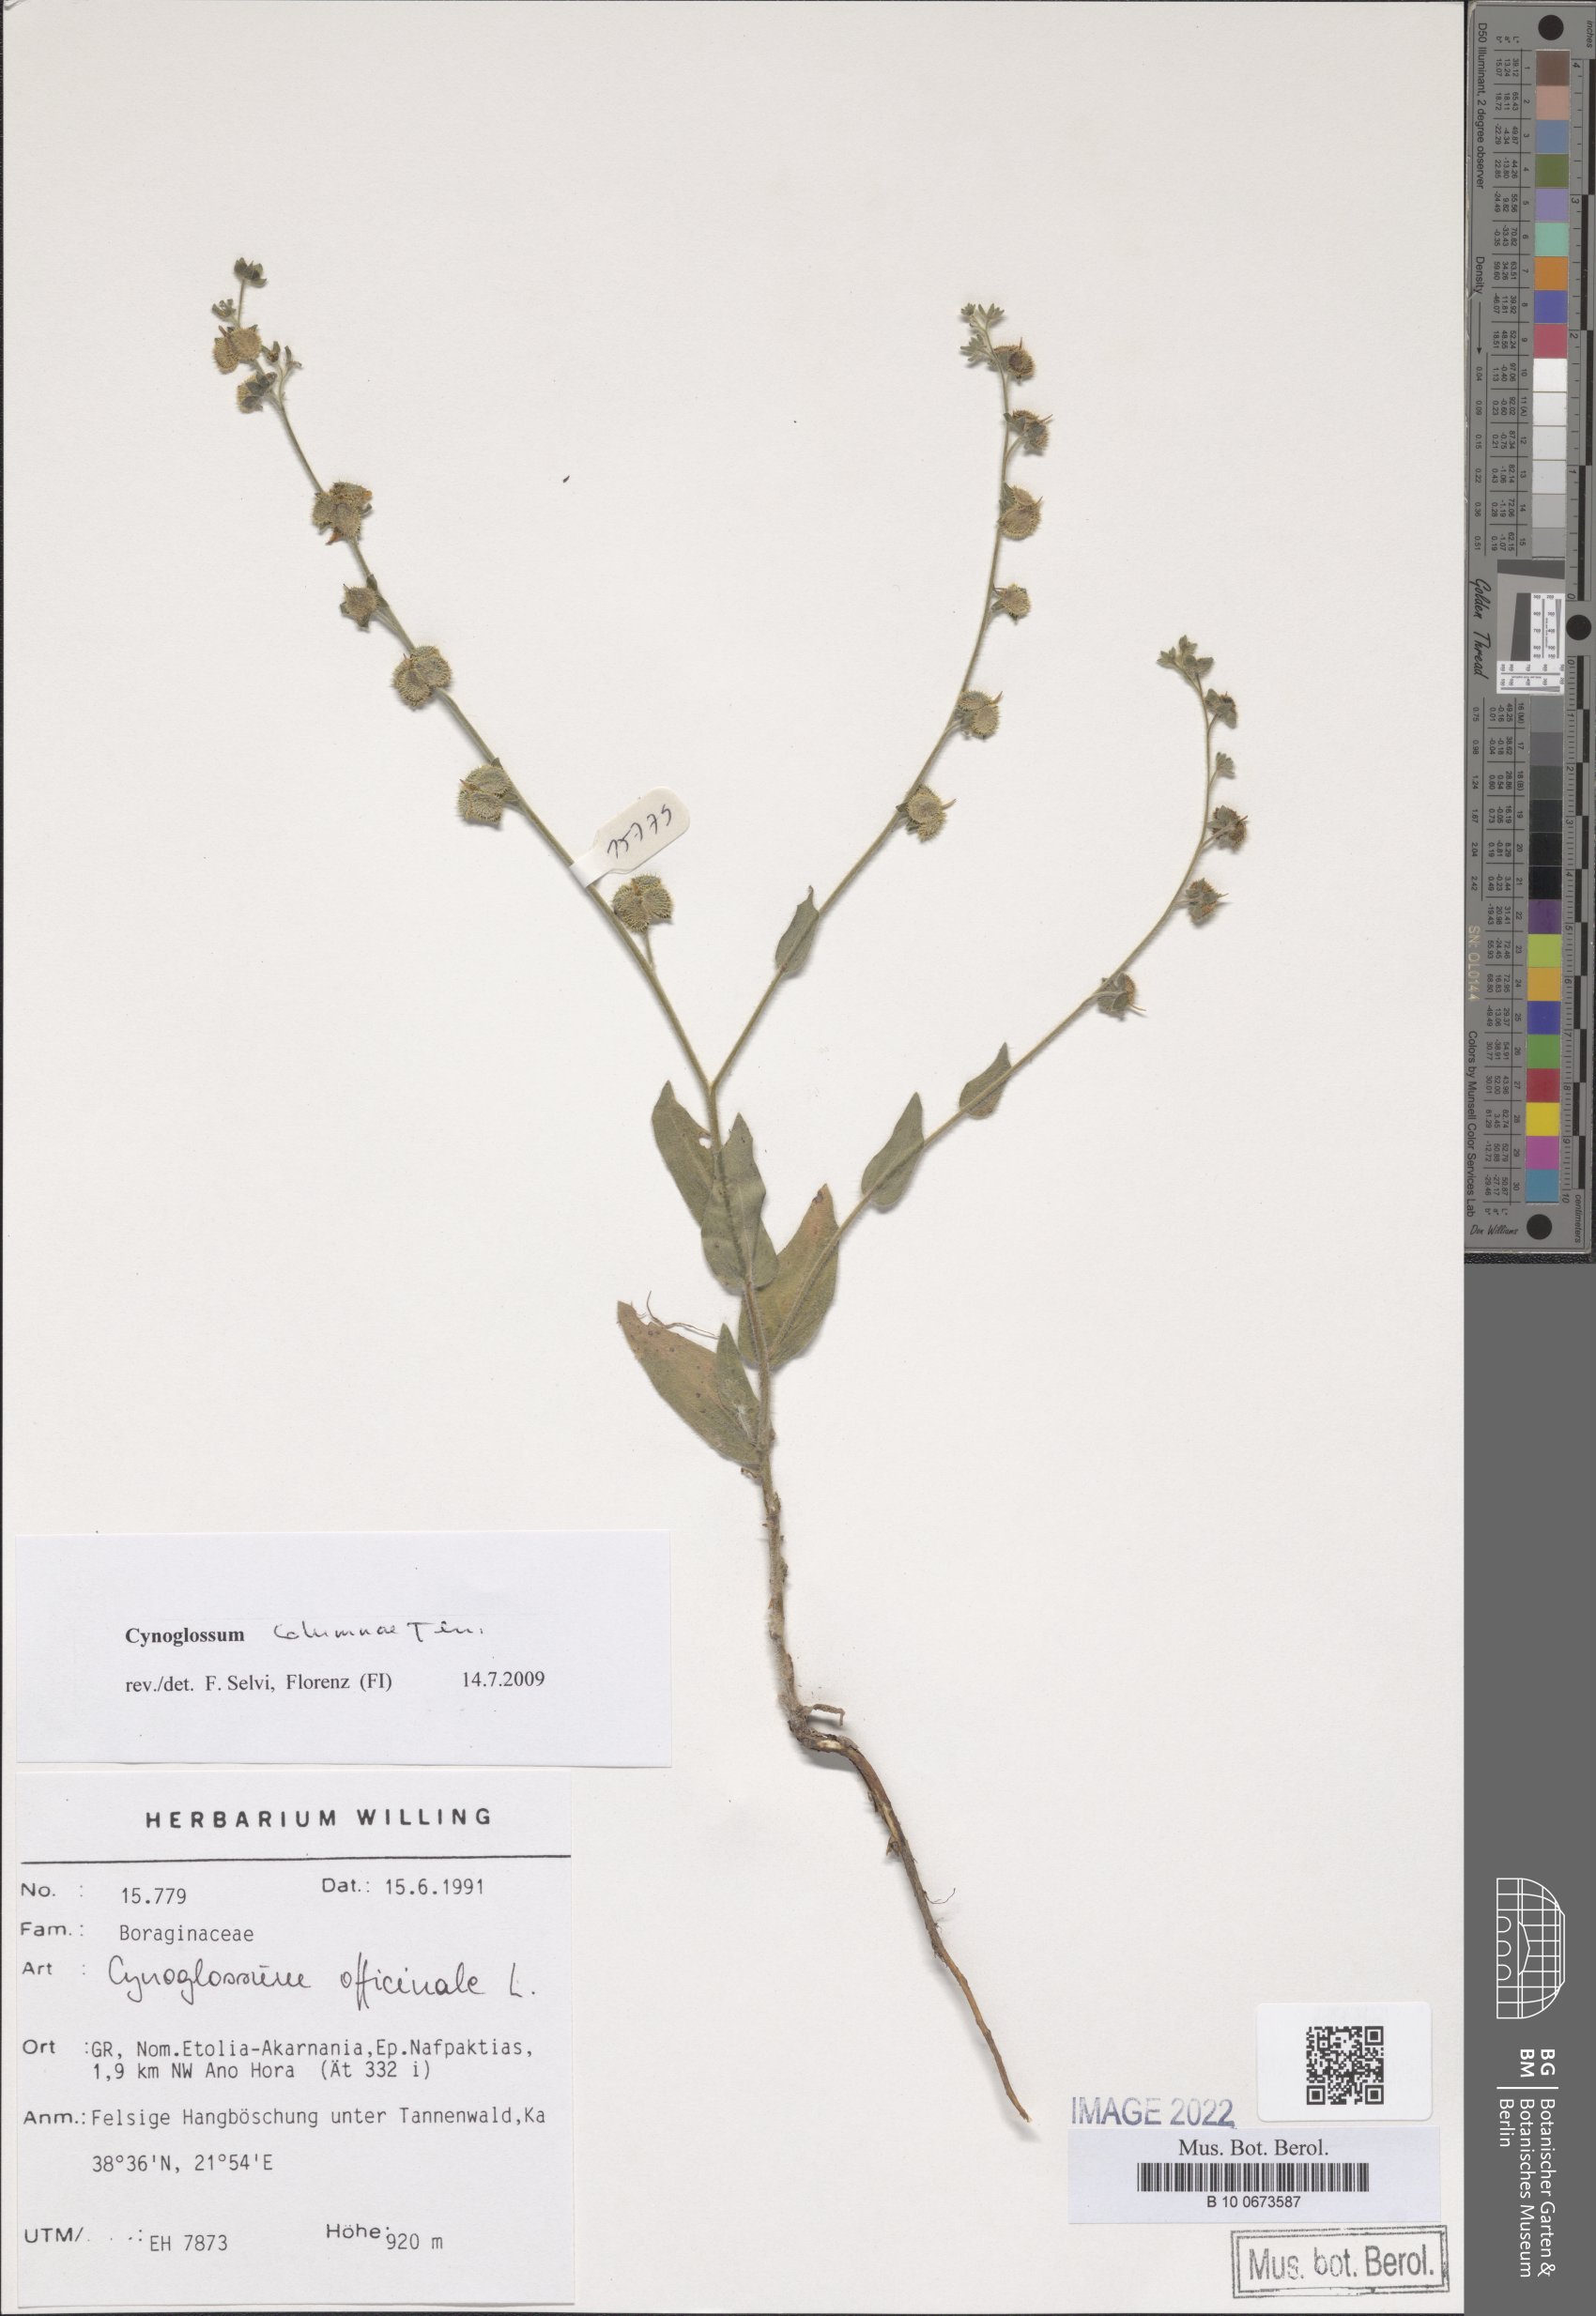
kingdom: Plantae
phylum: Tracheophyta
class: Magnoliopsida
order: Boraginales
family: Boraginaceae
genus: Rindera
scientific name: Rindera columnae
